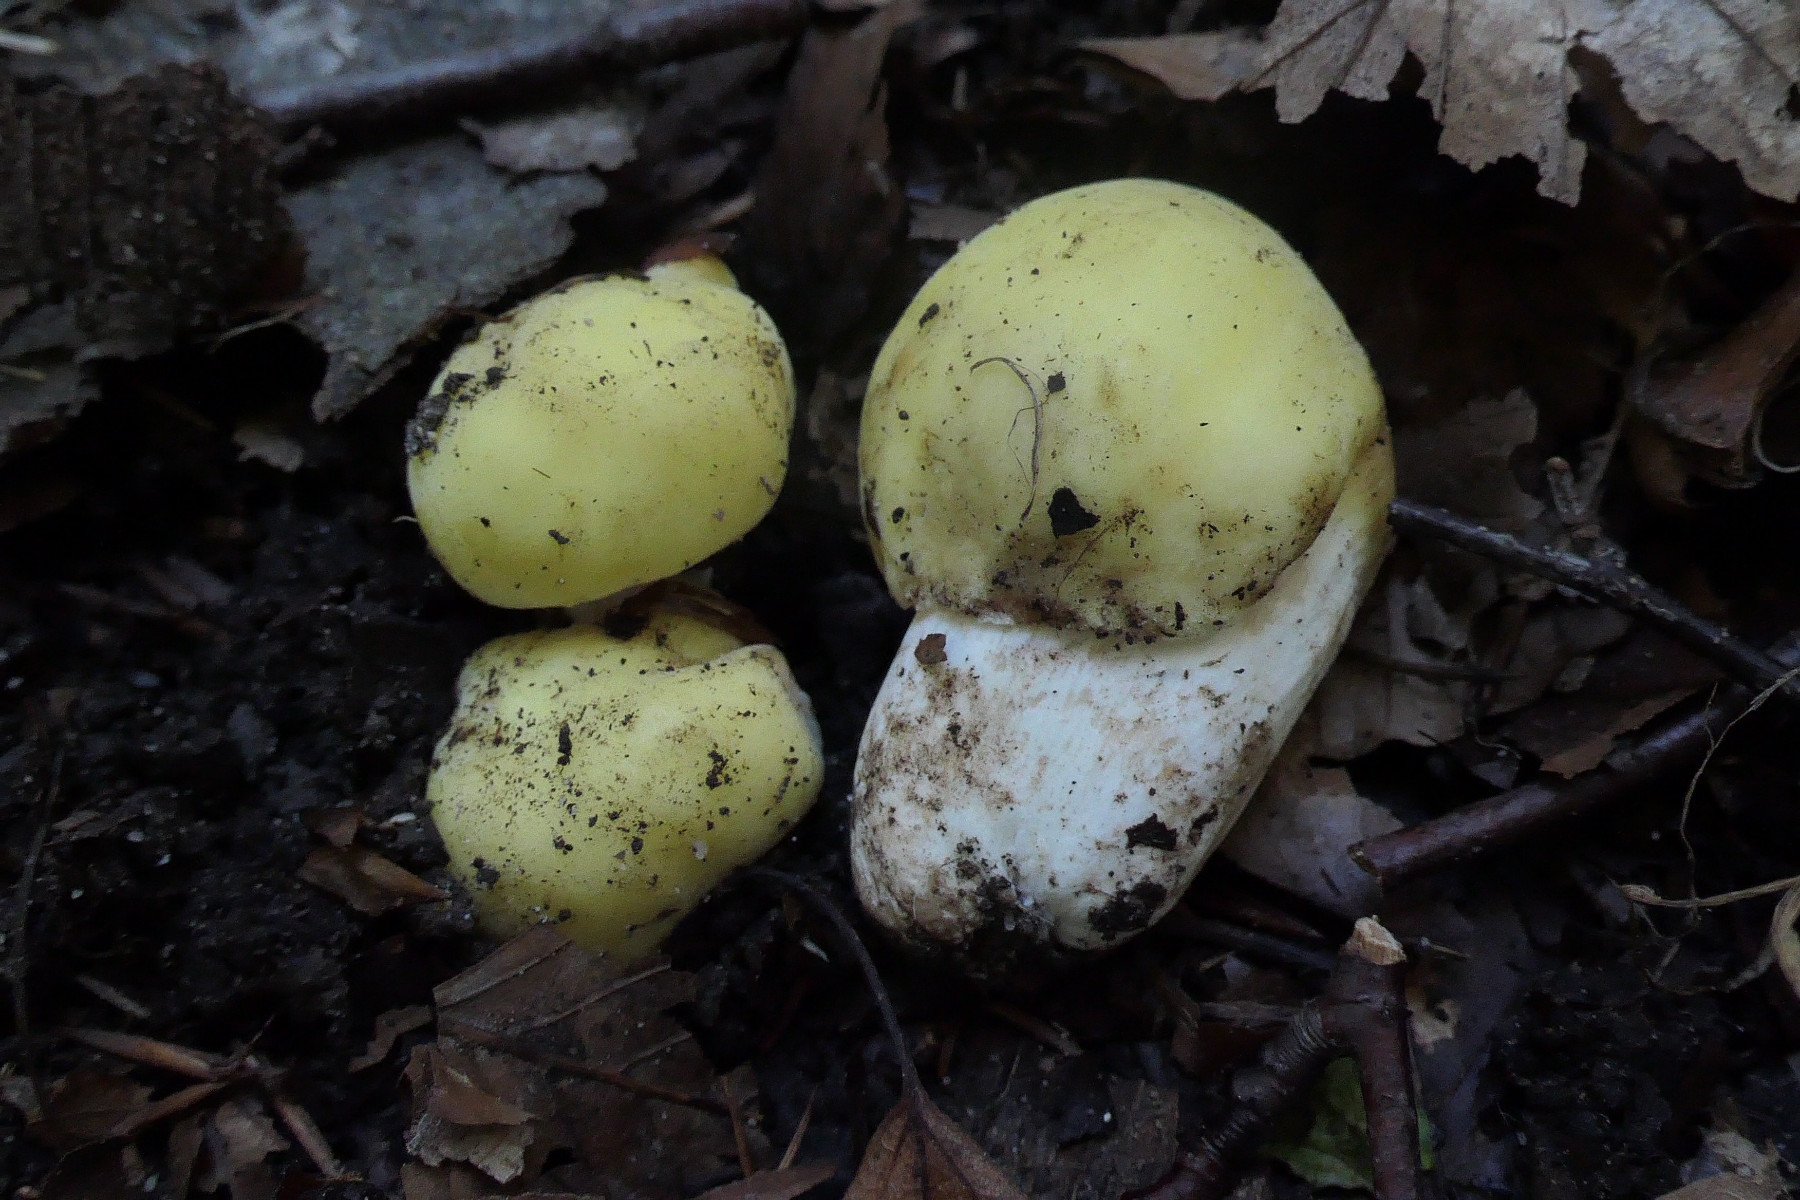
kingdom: Fungi
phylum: Basidiomycota
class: Agaricomycetes
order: Russulales
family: Russulaceae
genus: Russula
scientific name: Russula violeipes
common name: ferskengul skørhat
